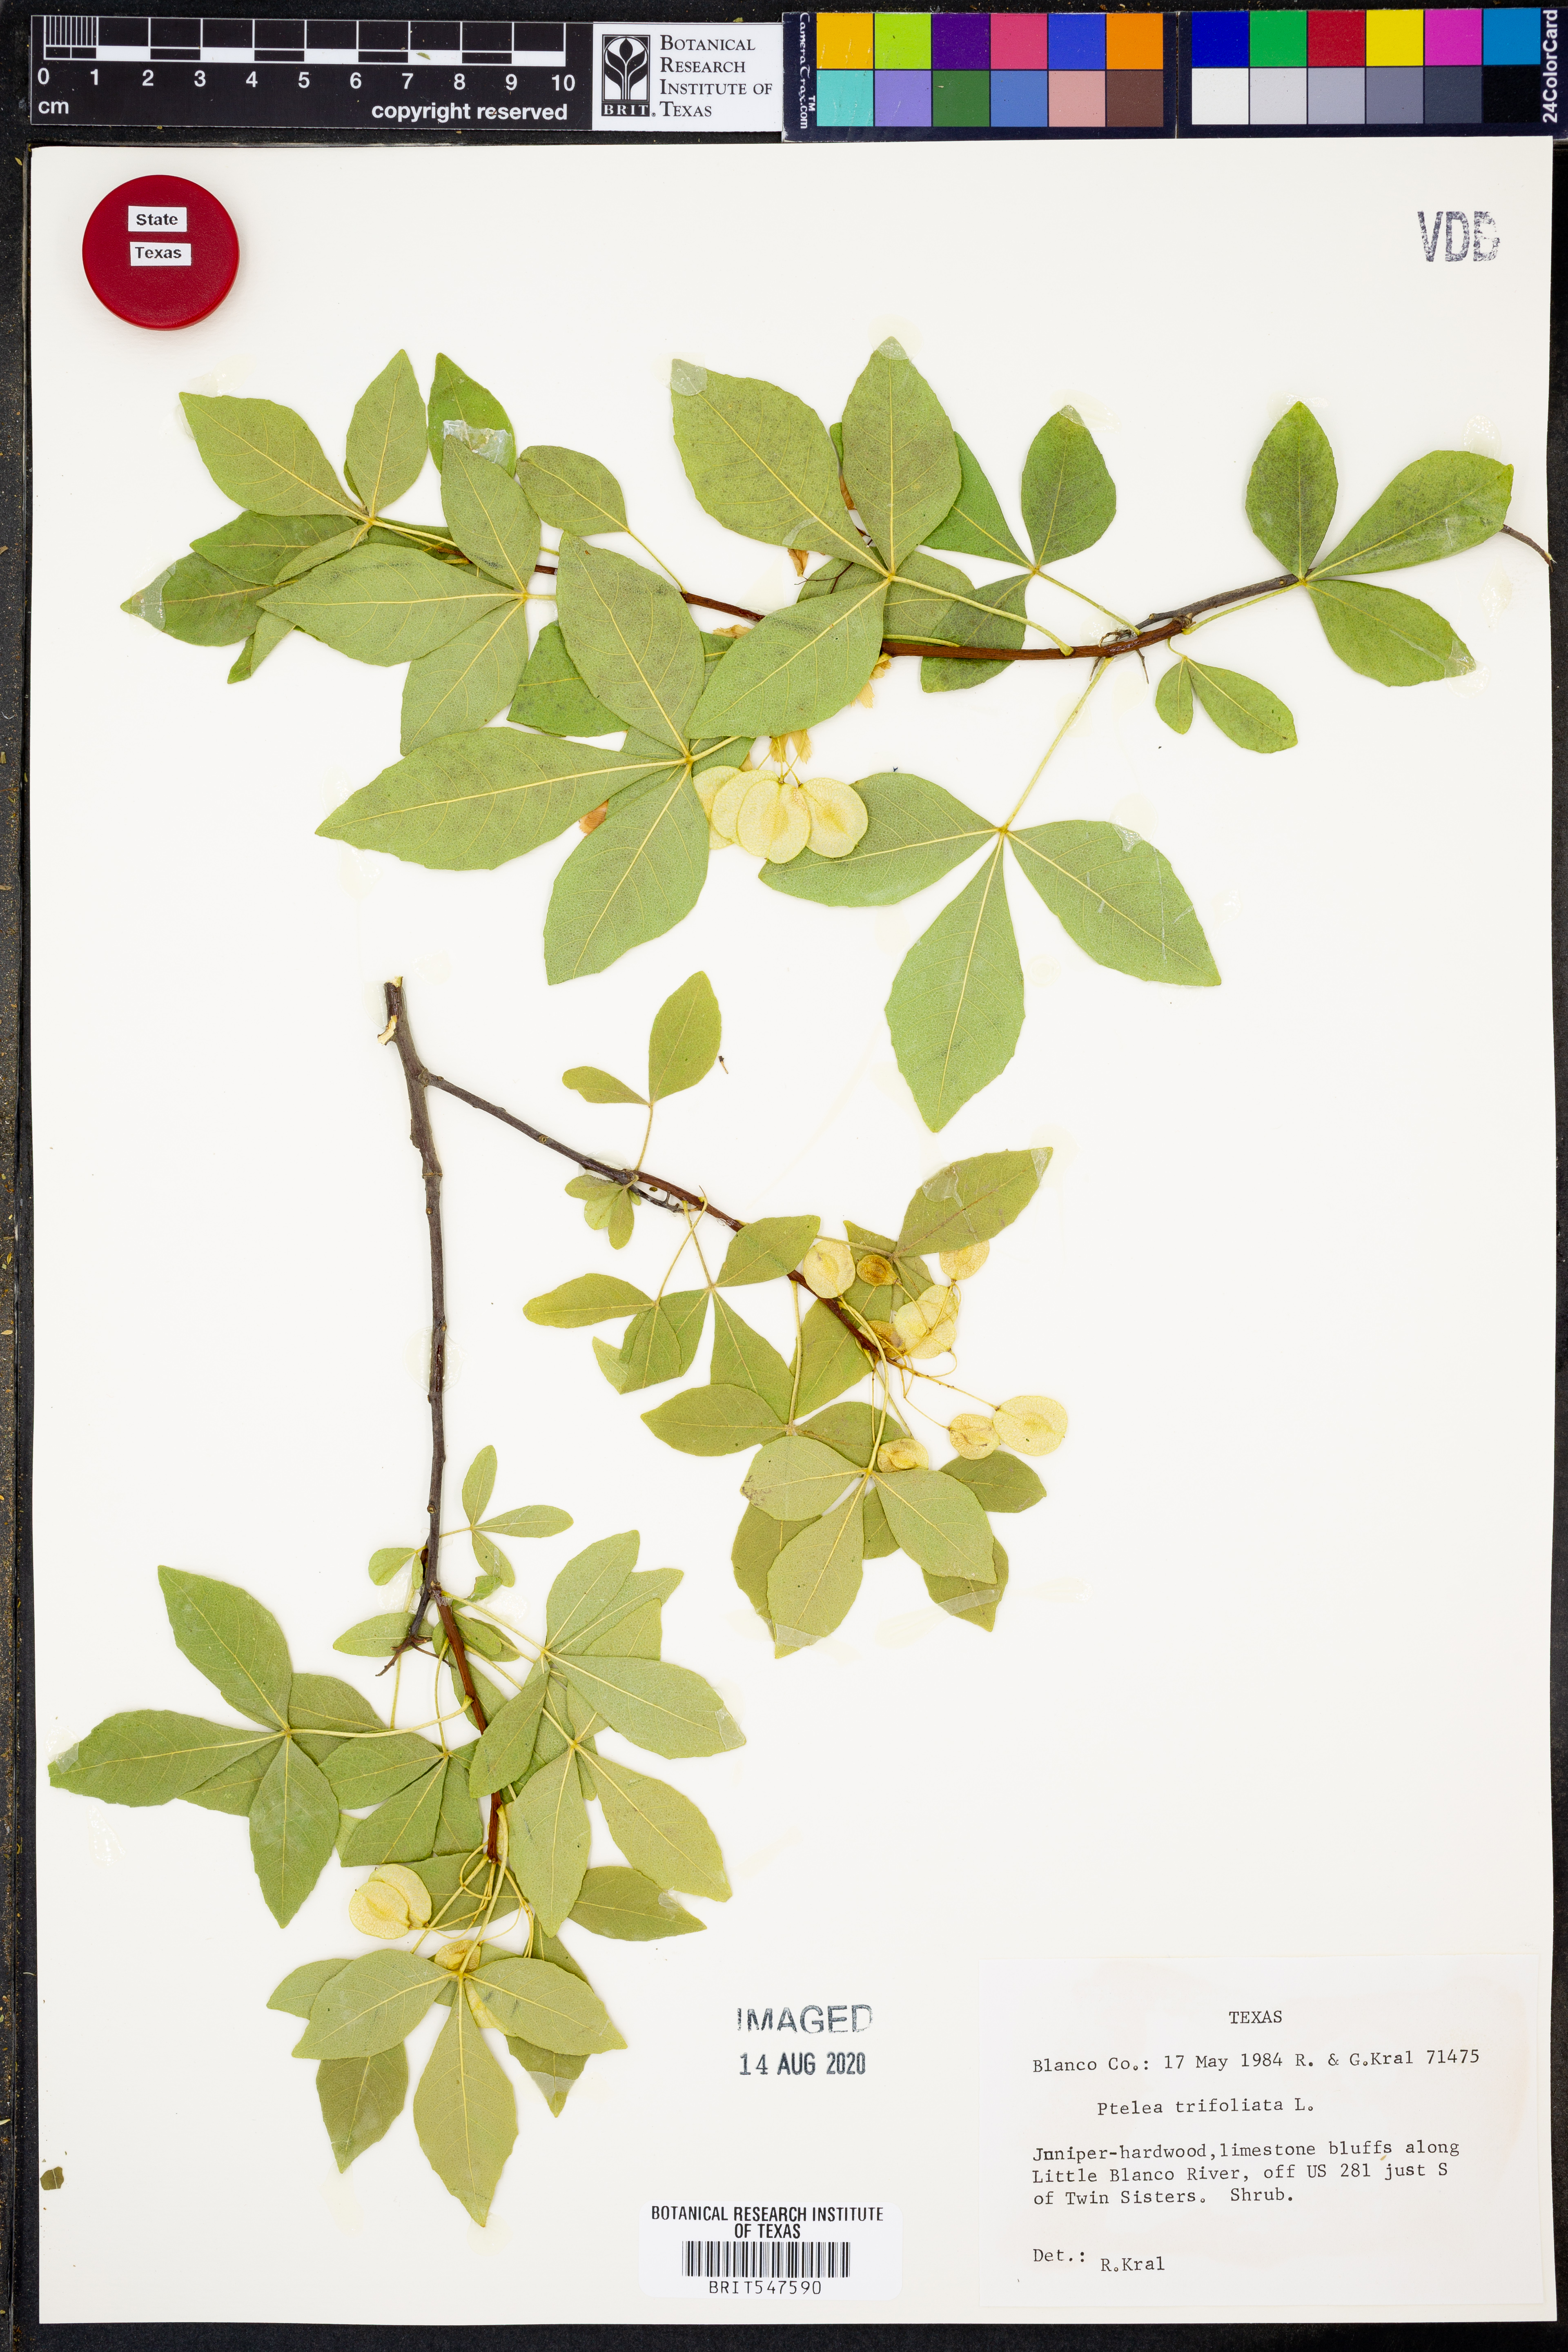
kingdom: Plantae
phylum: Tracheophyta
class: Magnoliopsida
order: Sapindales
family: Rutaceae
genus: Ptelea
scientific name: Ptelea trifoliata
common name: Common hop-tree
